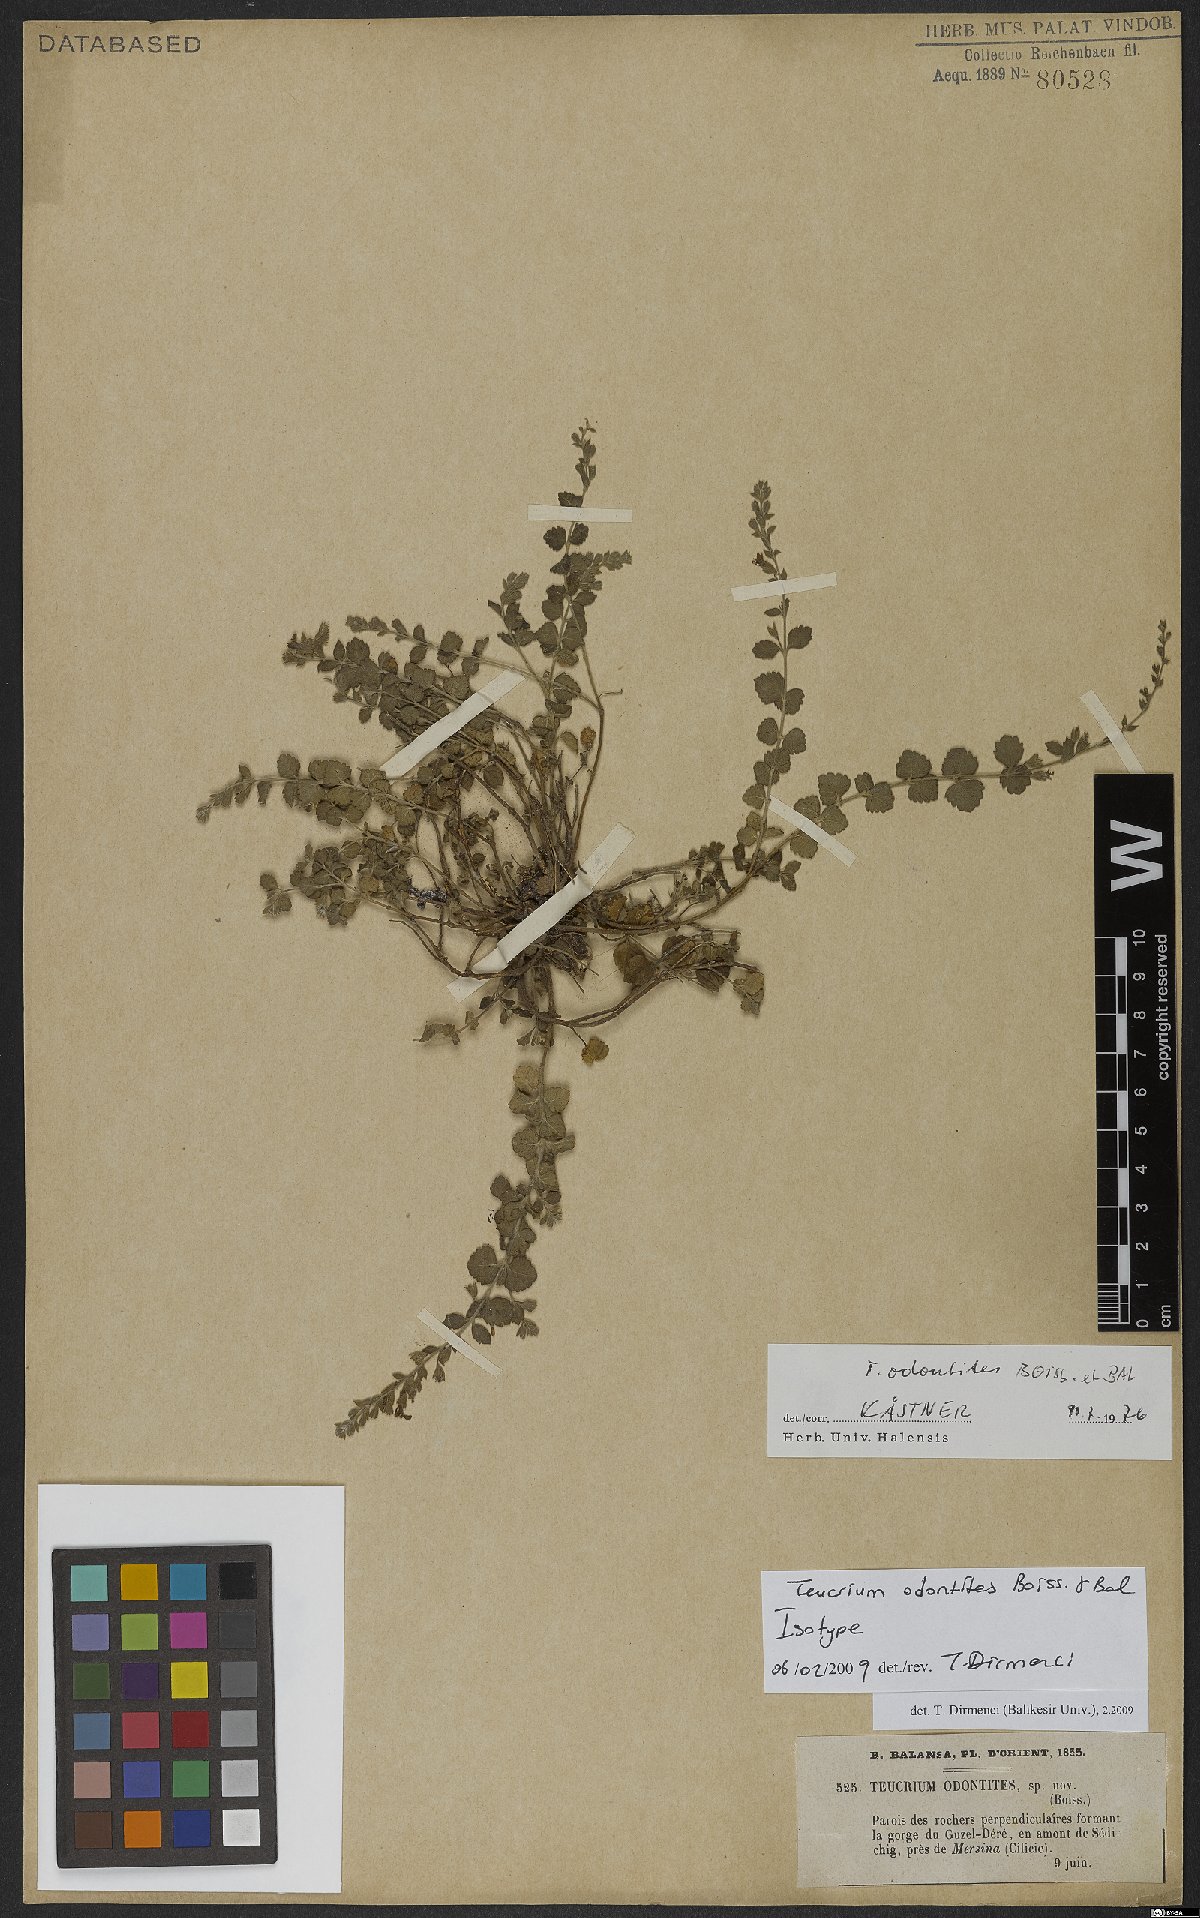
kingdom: Plantae
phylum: Tracheophyta
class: Magnoliopsida
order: Lamiales
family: Lamiaceae
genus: Teucrium
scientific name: Teucrium odontites
